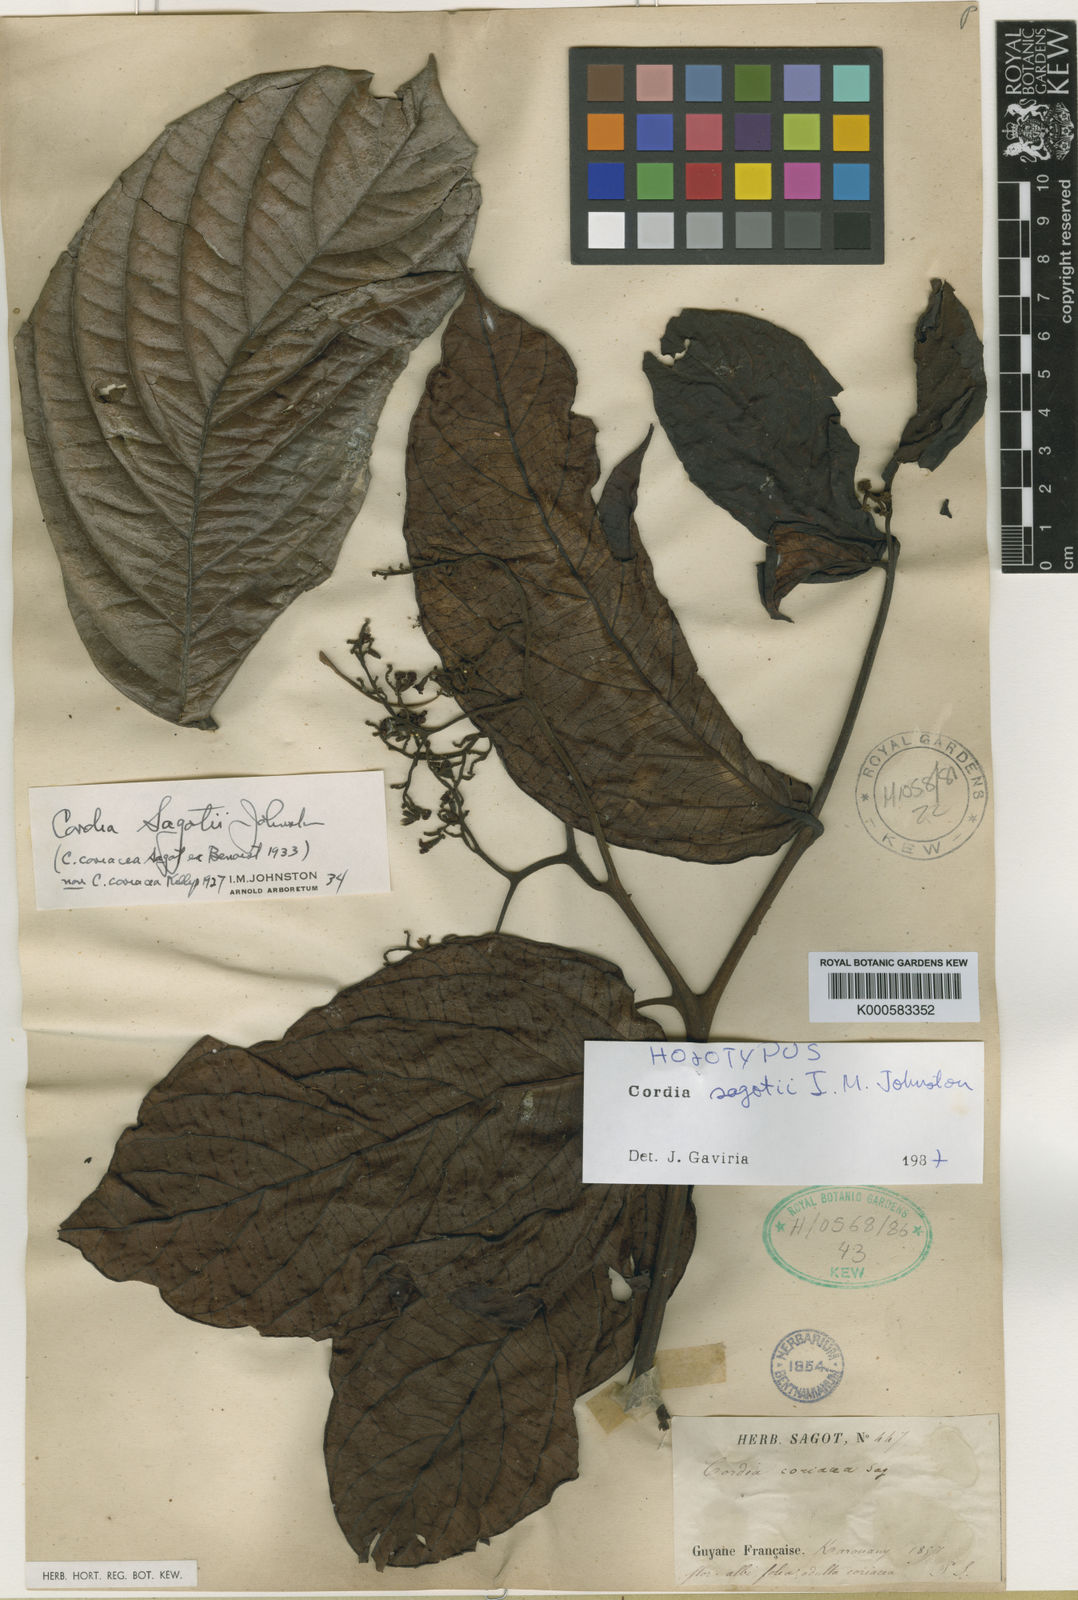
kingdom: Plantae
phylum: Tracheophyta
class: Magnoliopsida
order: Boraginales
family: Cordiaceae
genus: Cordia
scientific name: Cordia sagotii
